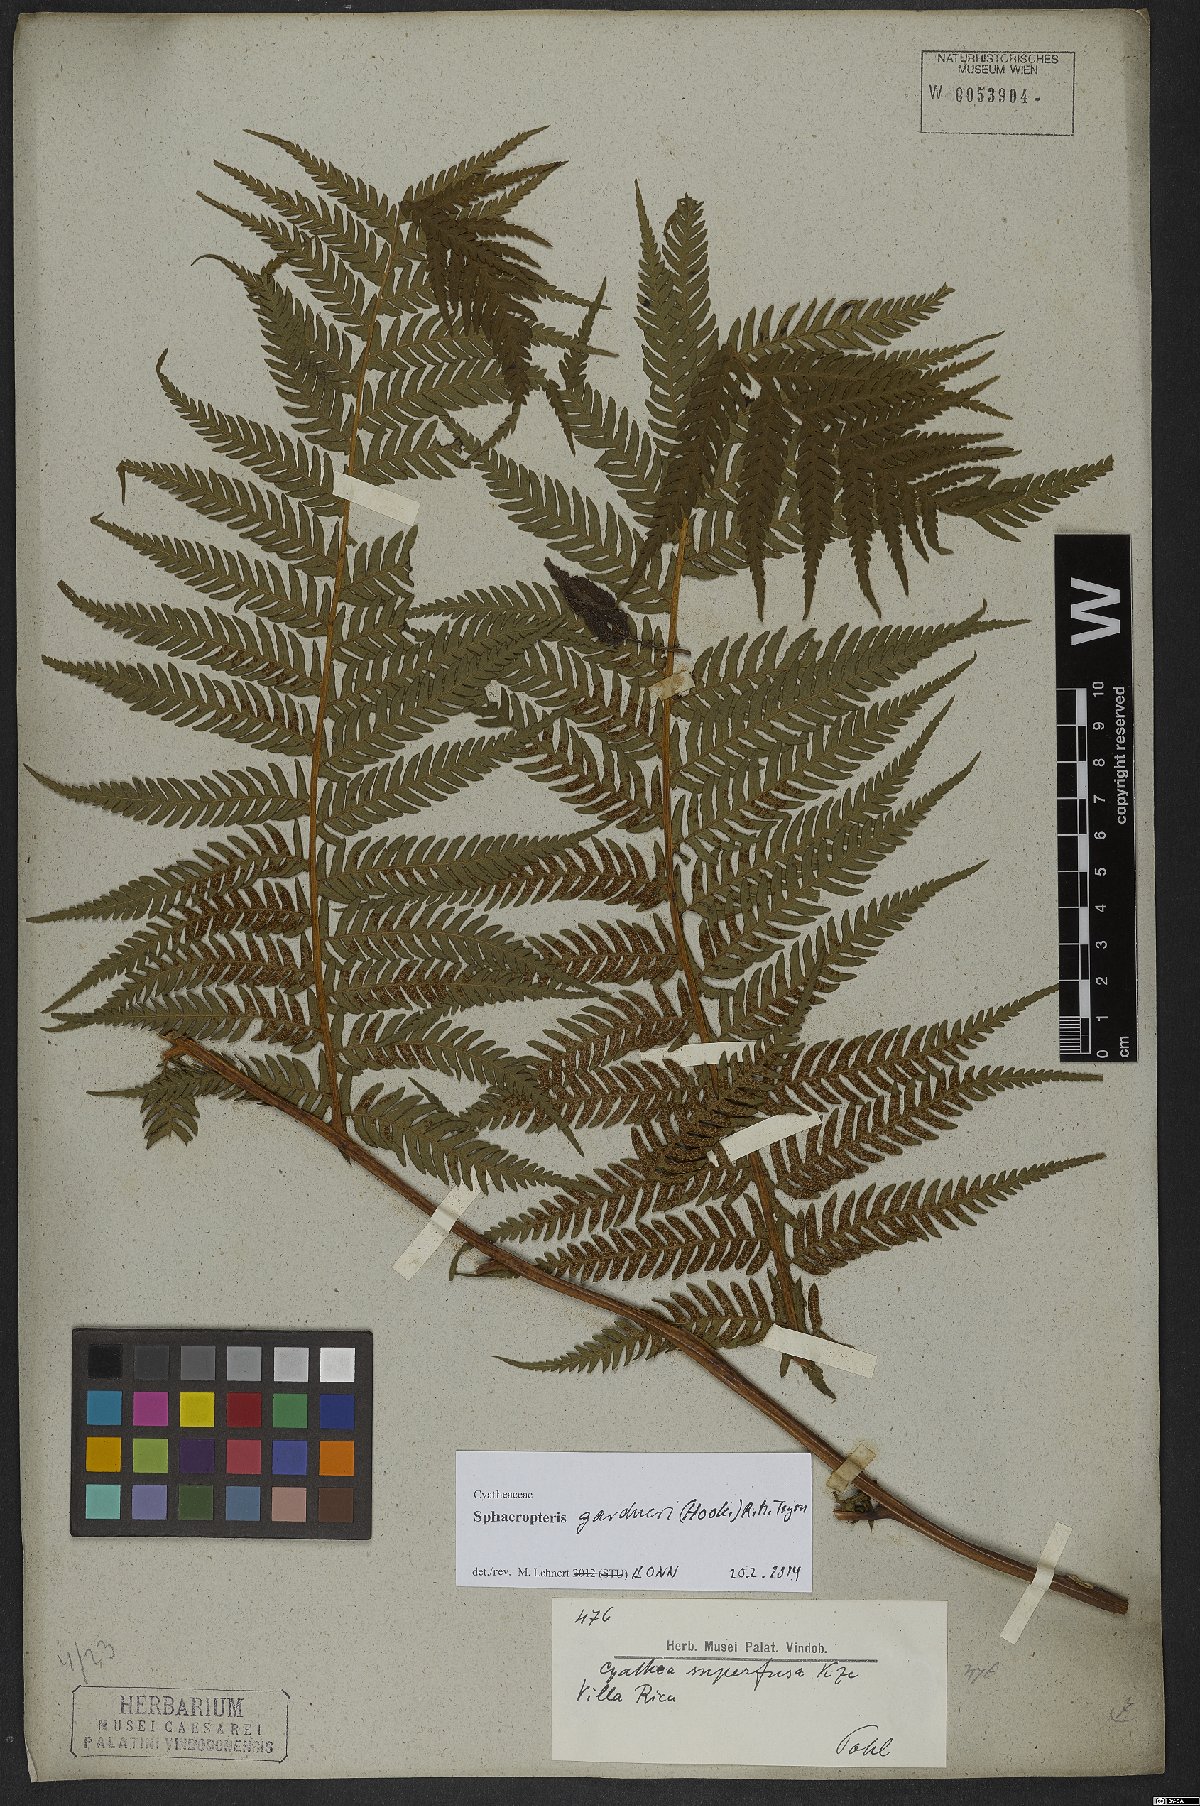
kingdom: Plantae
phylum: Tracheophyta
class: Polypodiopsida
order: Cyatheales
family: Cyatheaceae
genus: Sphaeropteris
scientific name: Sphaeropteris gardneri
